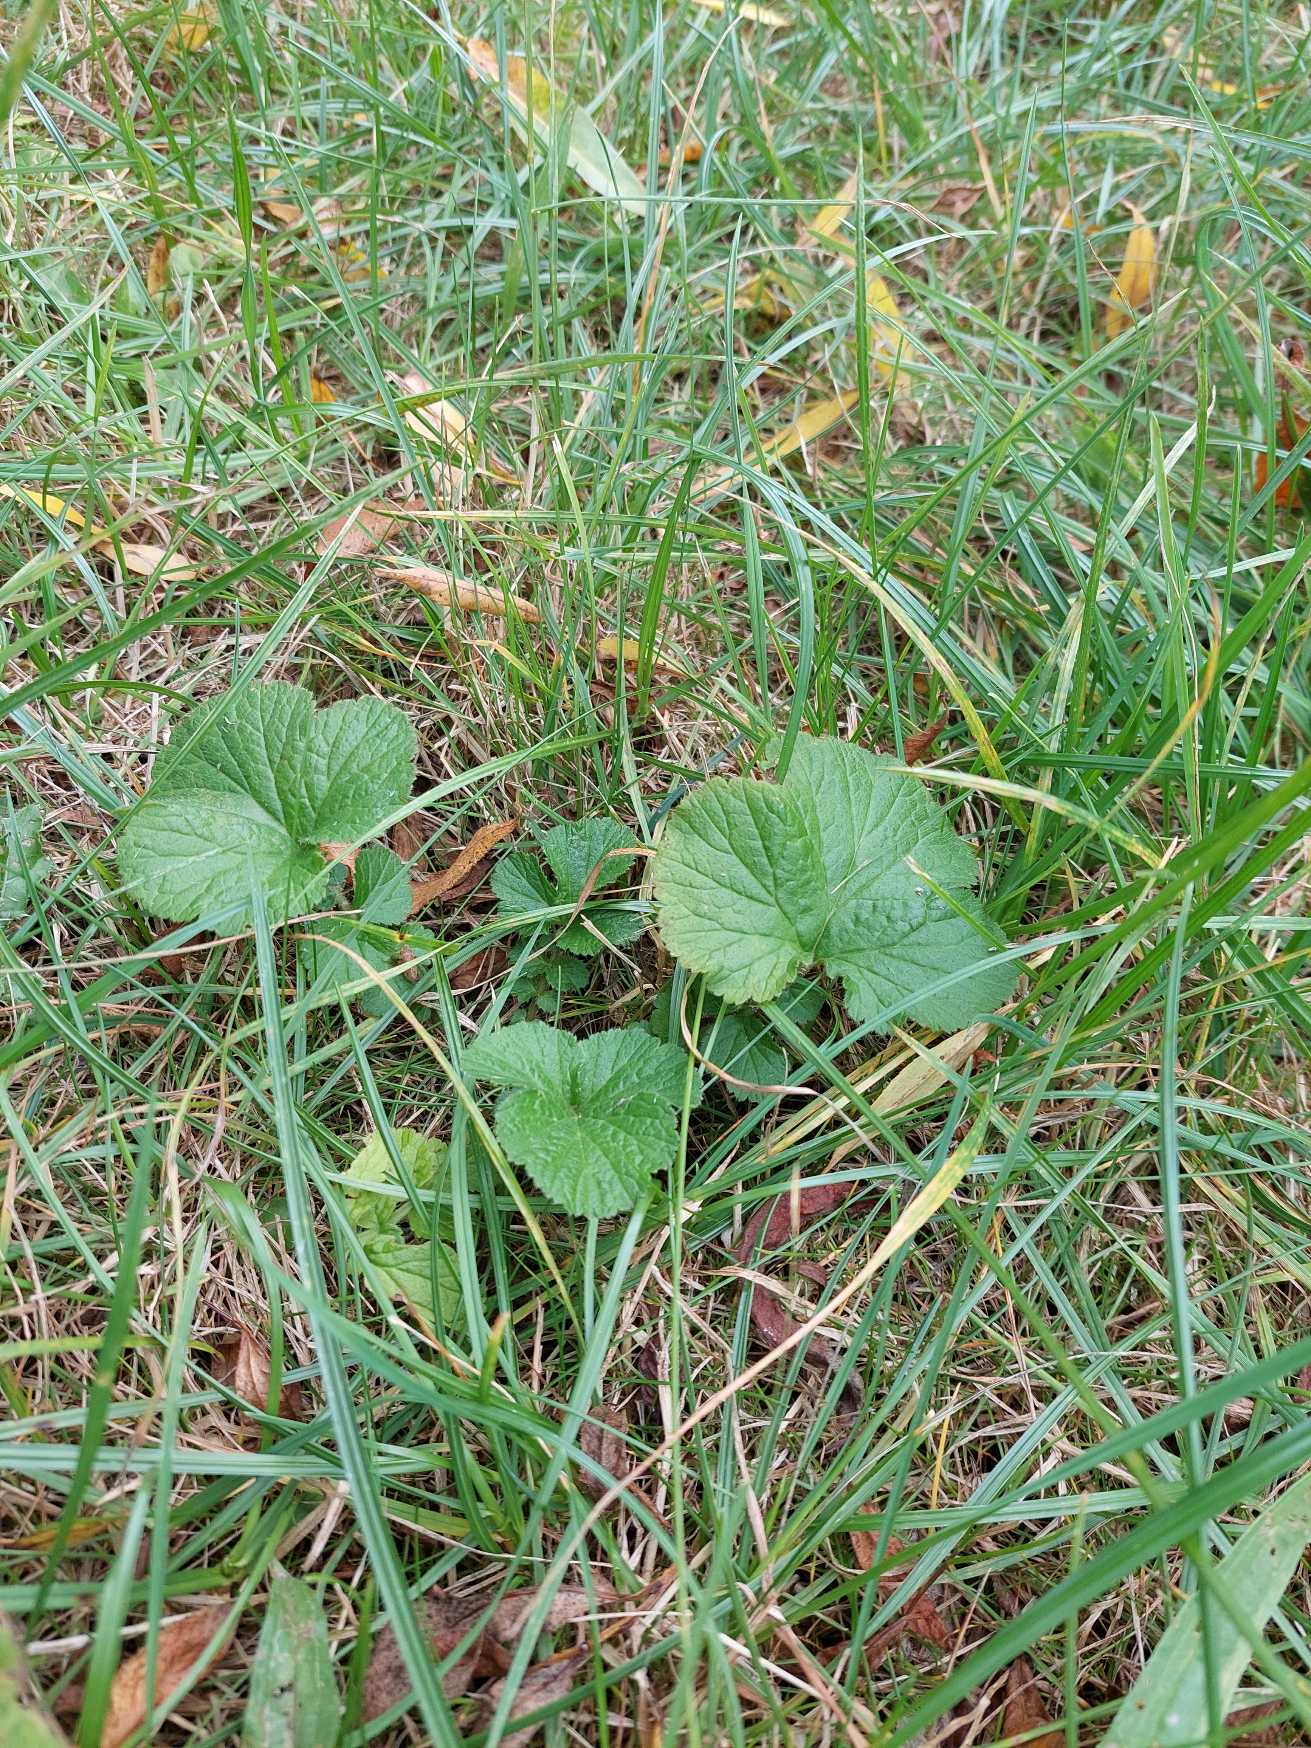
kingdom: Plantae
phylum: Tracheophyta
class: Magnoliopsida
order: Rosales
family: Rosaceae
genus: Geum
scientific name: Geum
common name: Nellikerodslægten
